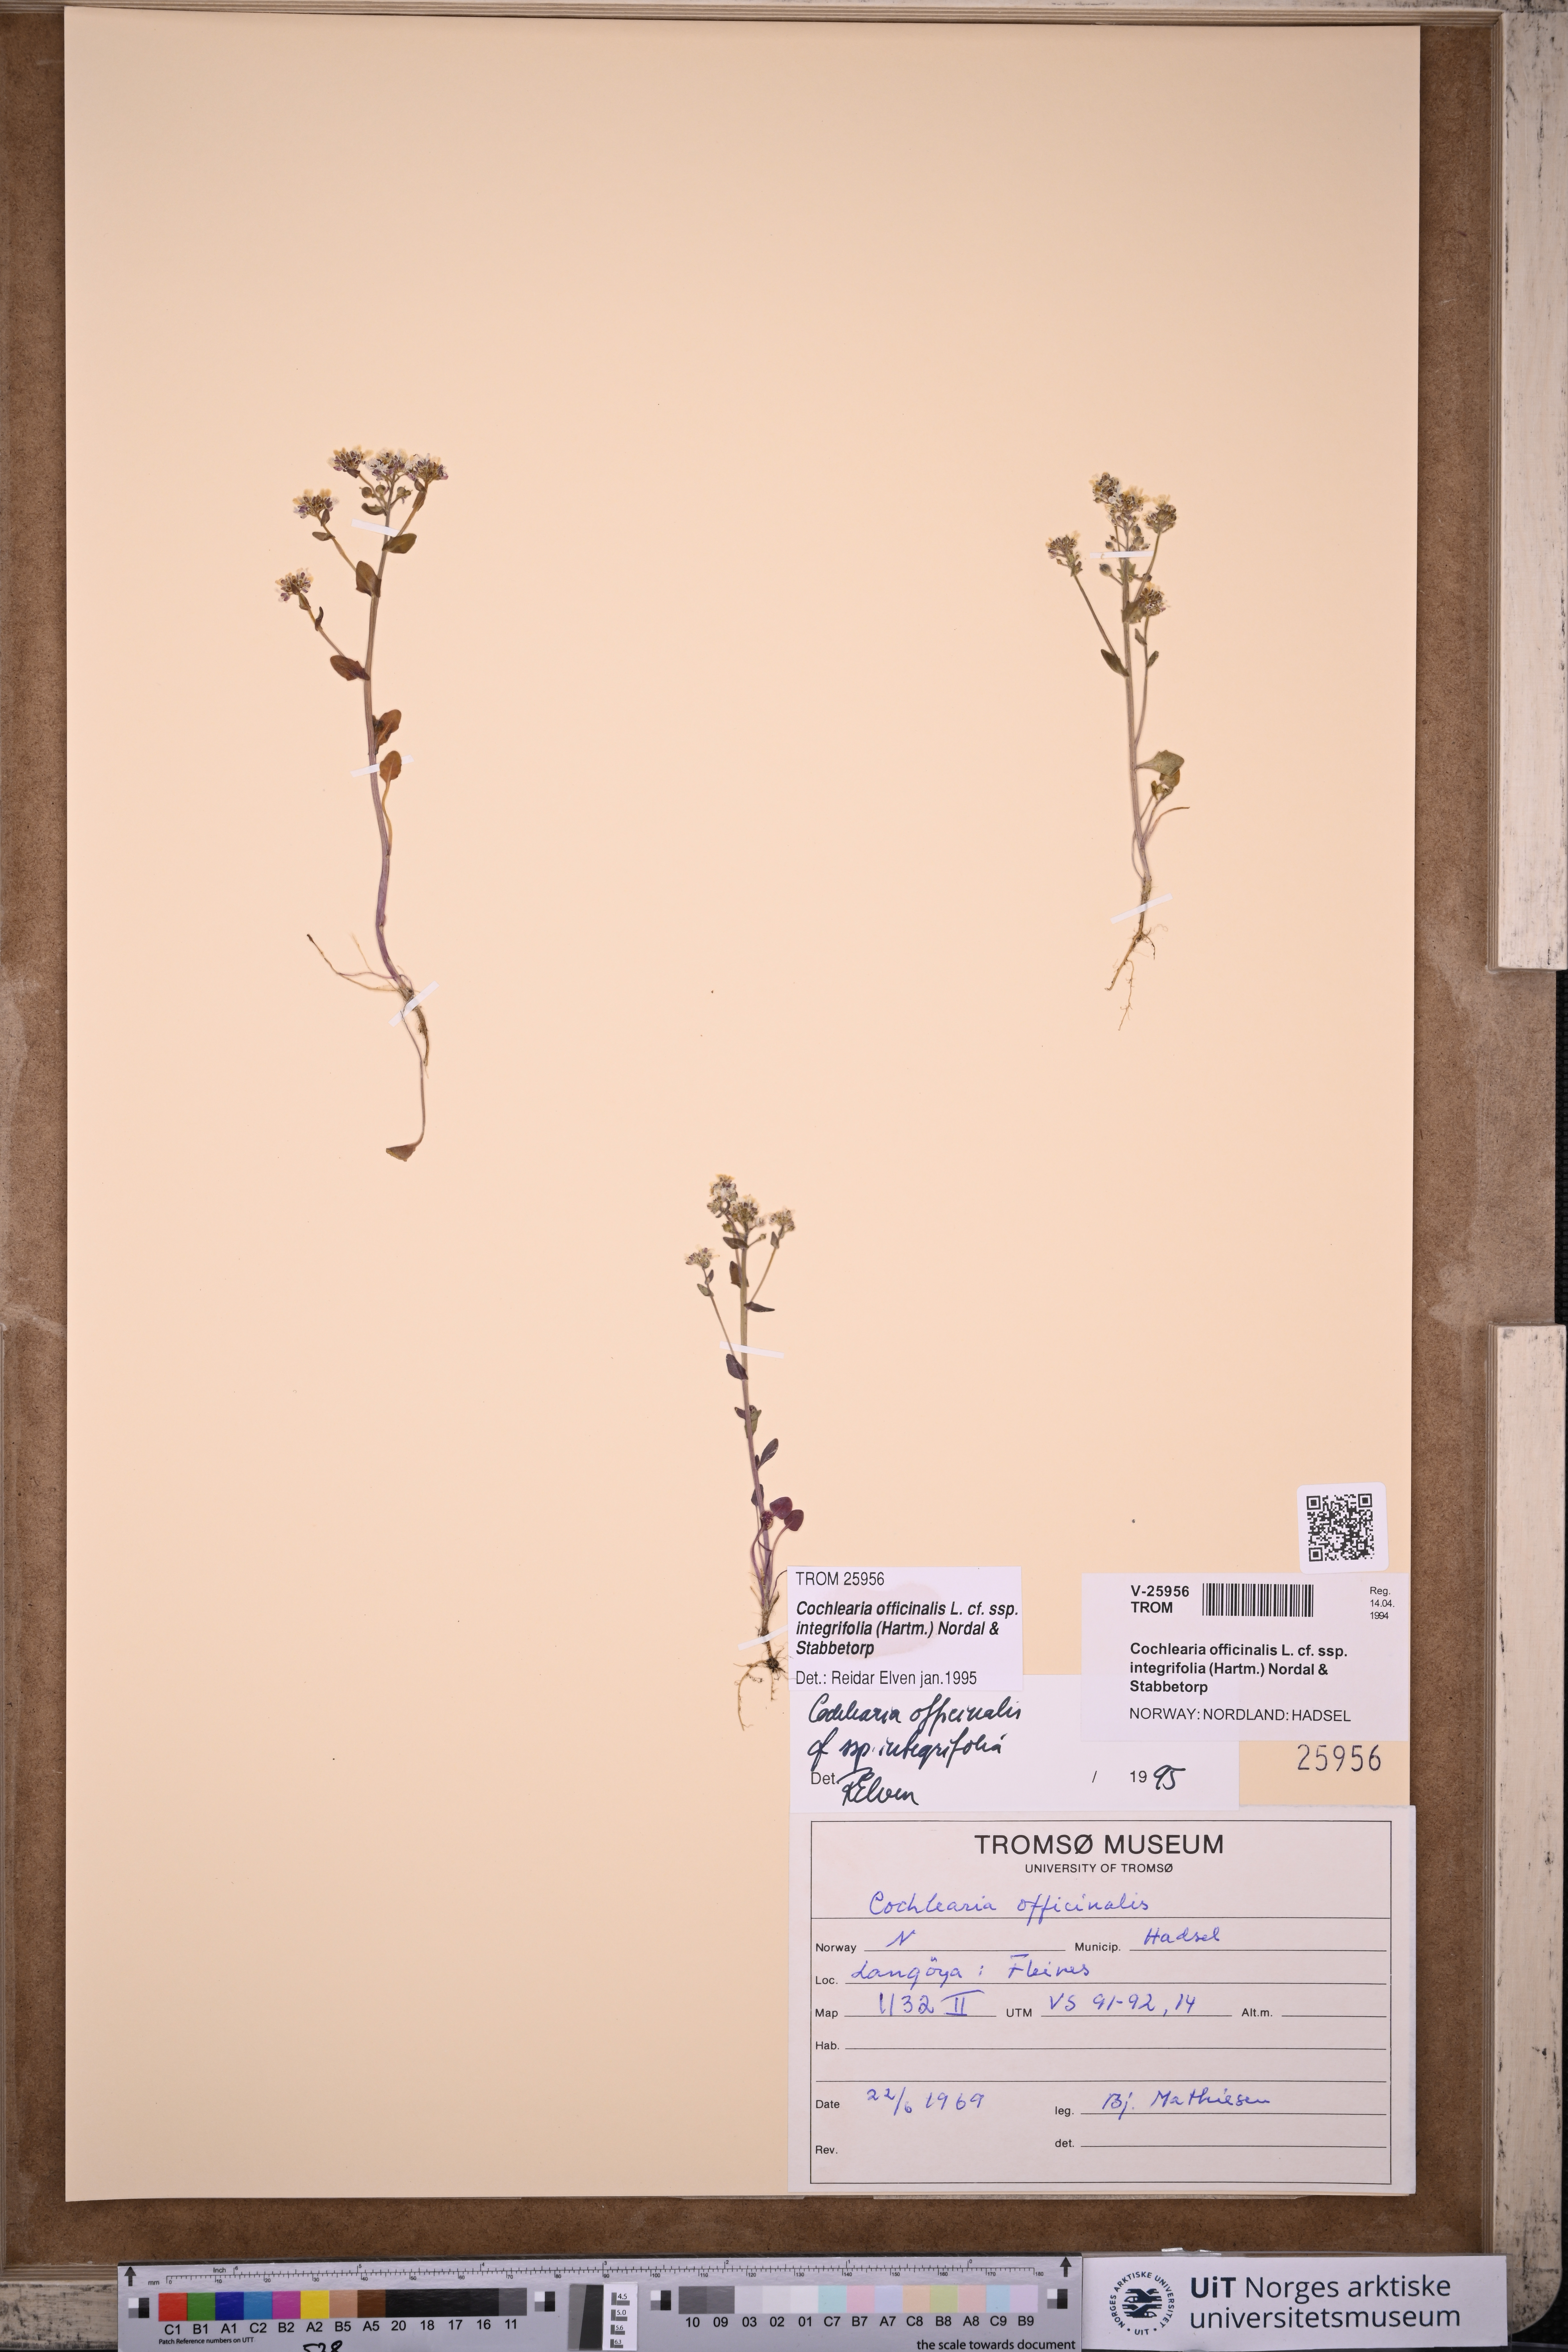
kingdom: Plantae
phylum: Tracheophyta
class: Magnoliopsida
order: Brassicales
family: Brassicaceae
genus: Cochlearia
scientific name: Cochlearia officinalis
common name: Scurvy-grass
